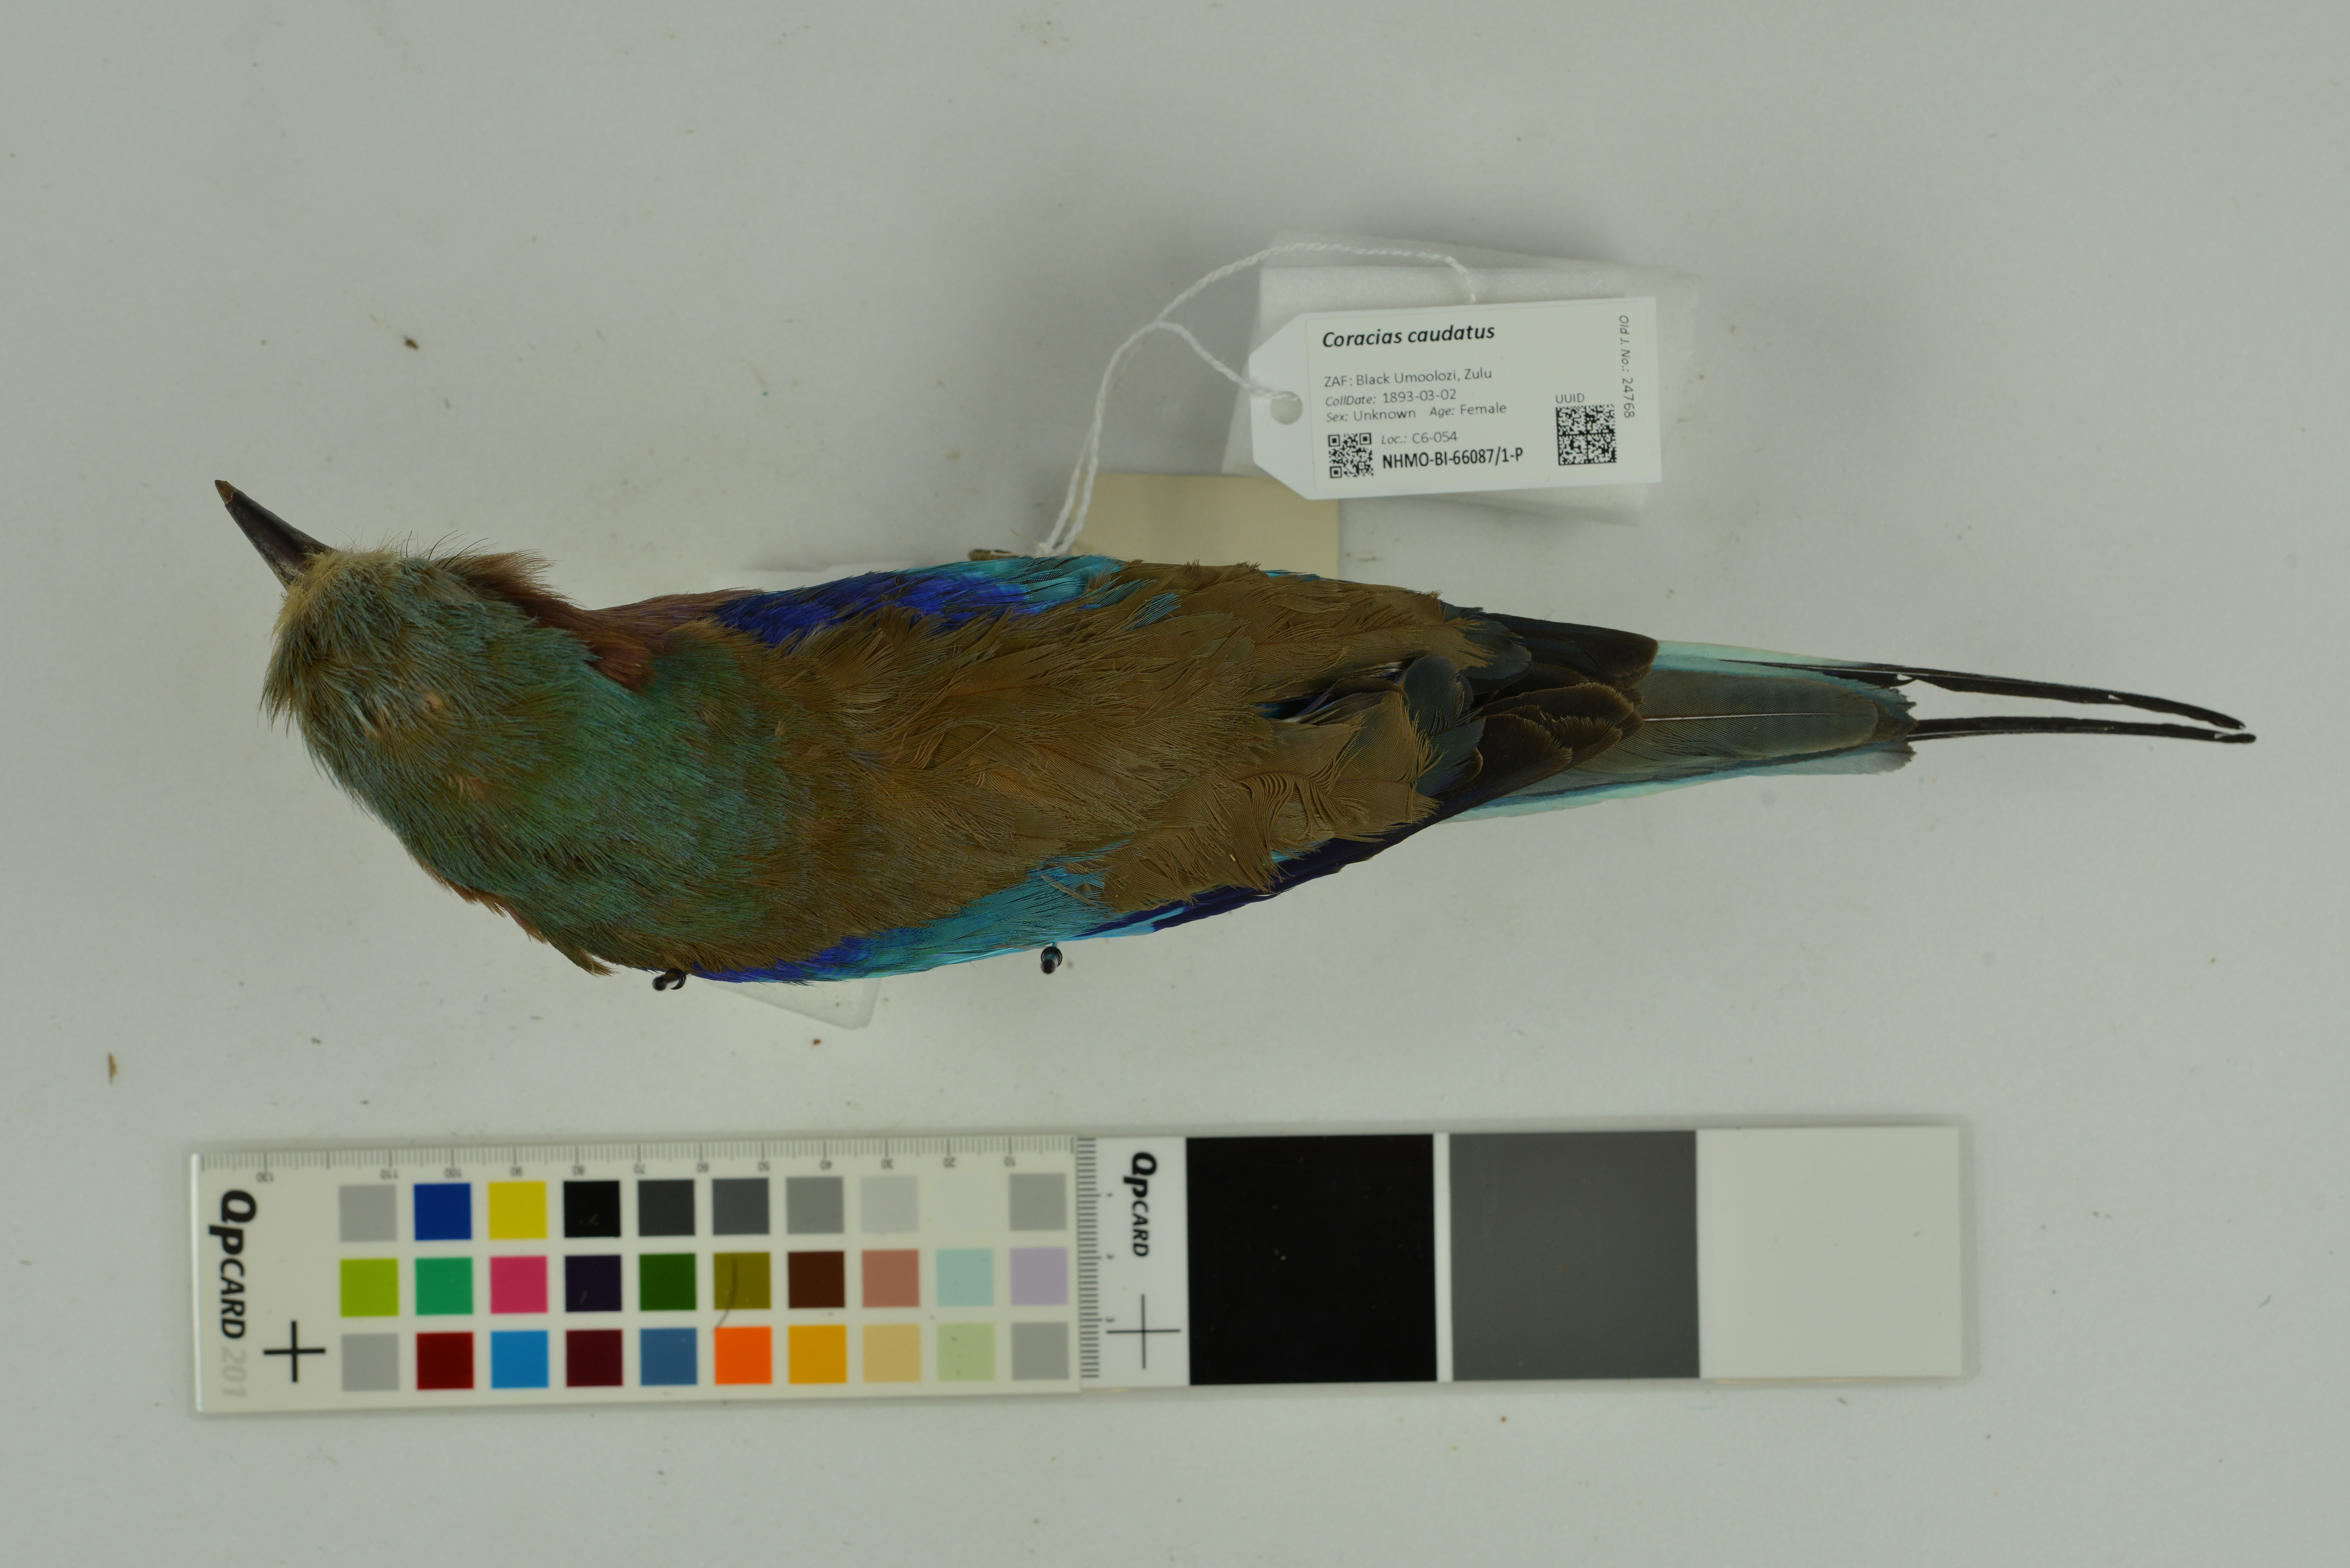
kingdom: Animalia
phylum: Chordata
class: Aves
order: Coraciiformes
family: Coraciidae
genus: Coracias
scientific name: Coracias caudatus
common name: Lilac-breasted roller
